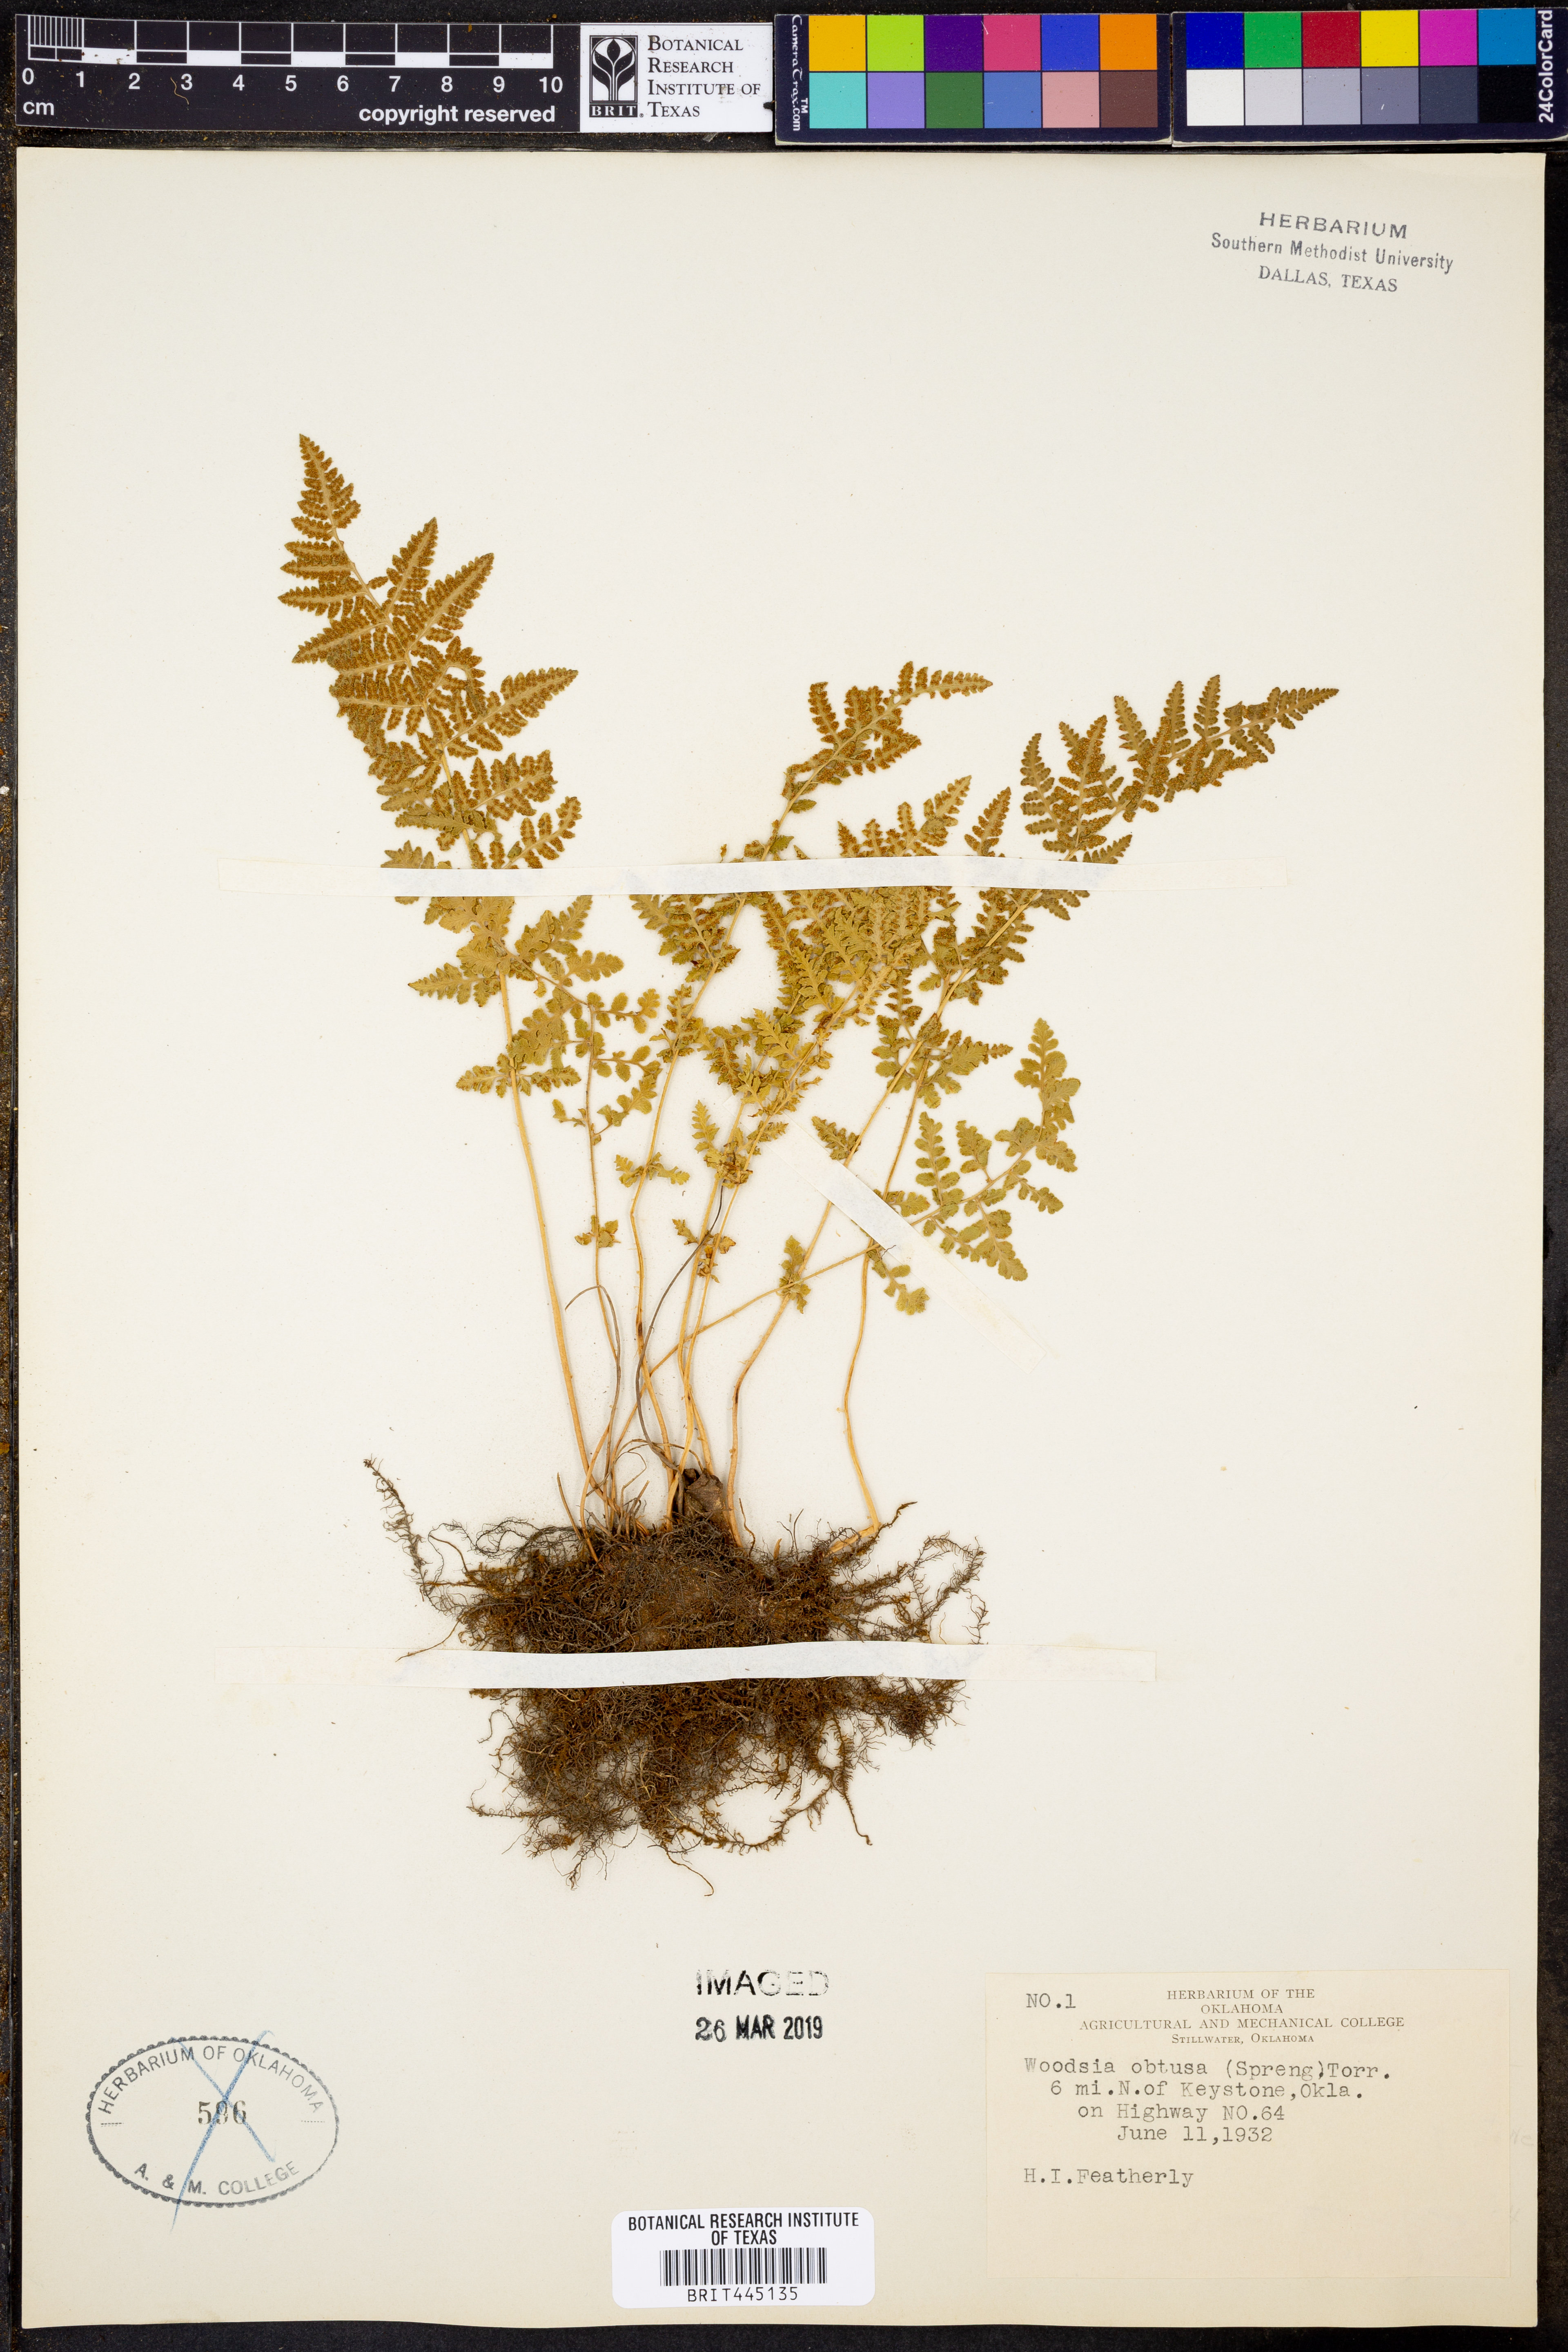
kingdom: Plantae
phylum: Tracheophyta
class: Polypodiopsida
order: Polypodiales
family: Woodsiaceae
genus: Physematium
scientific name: Physematium obtusum
